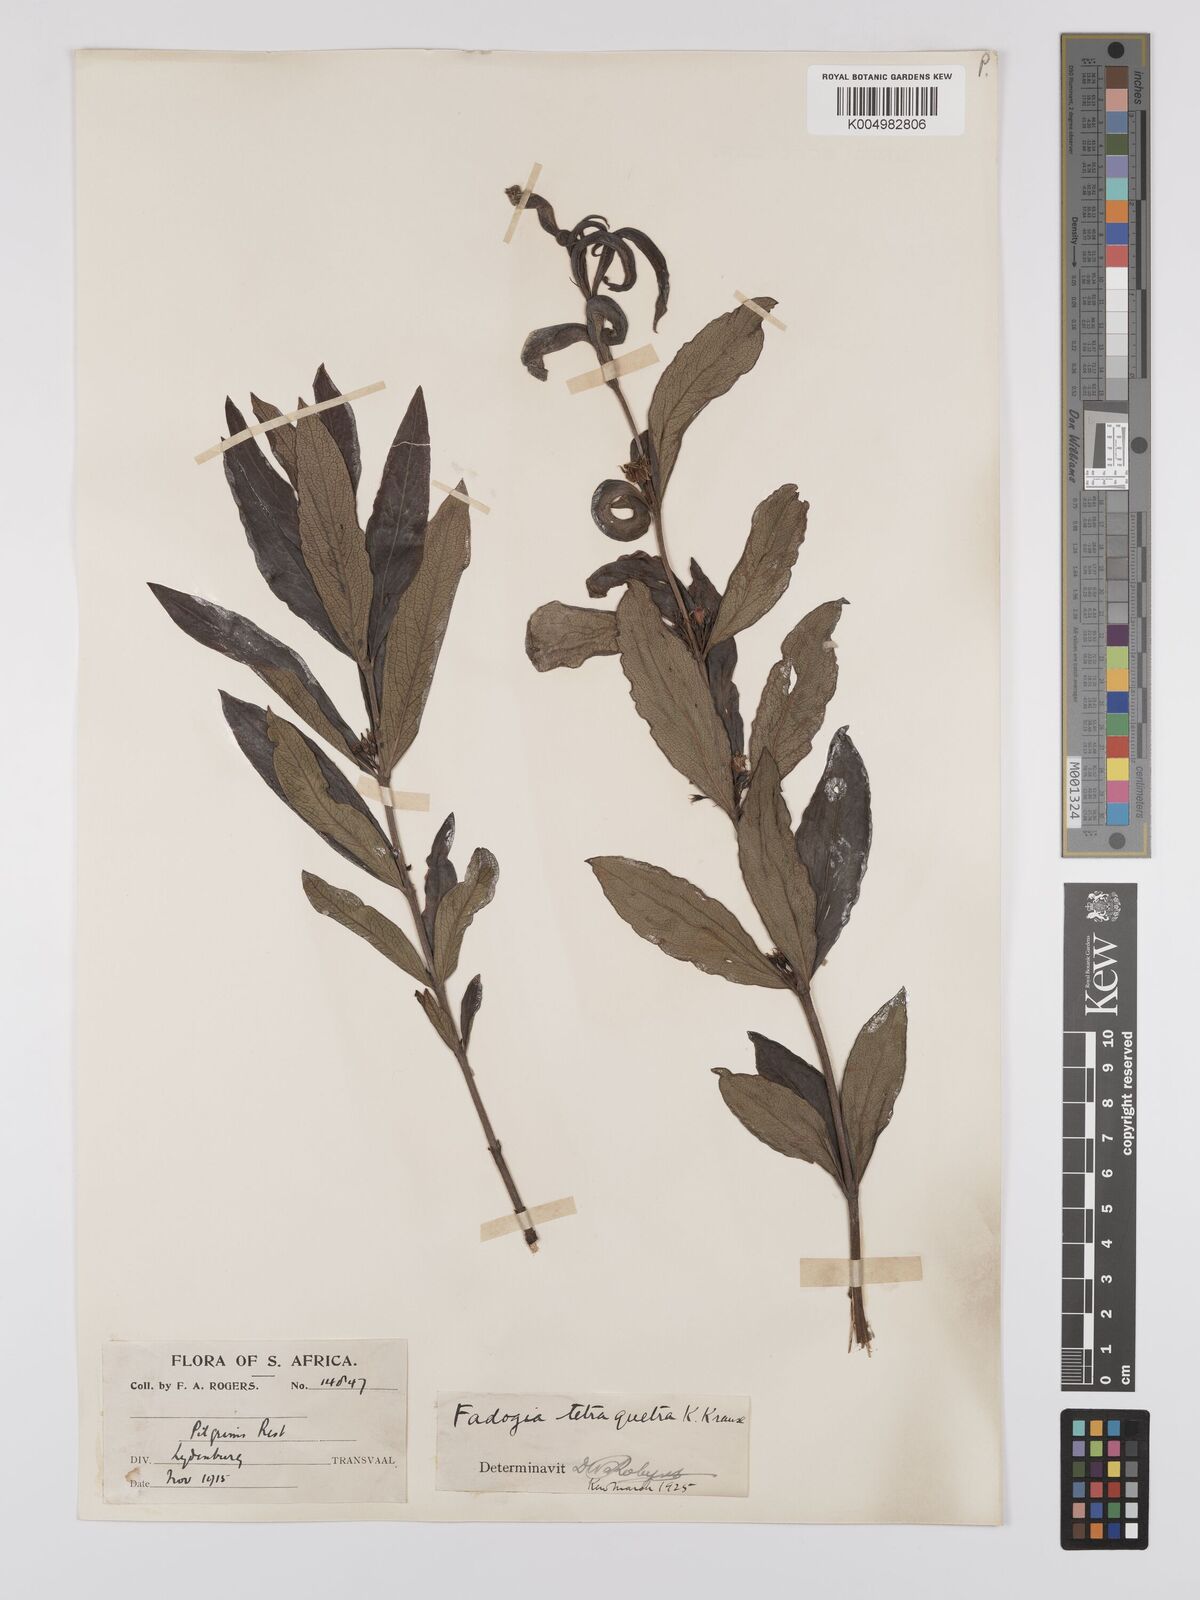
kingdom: Plantae
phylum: Tracheophyta
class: Magnoliopsida
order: Gentianales
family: Rubiaceae
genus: Fadogia
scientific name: Fadogia tetraquetra
